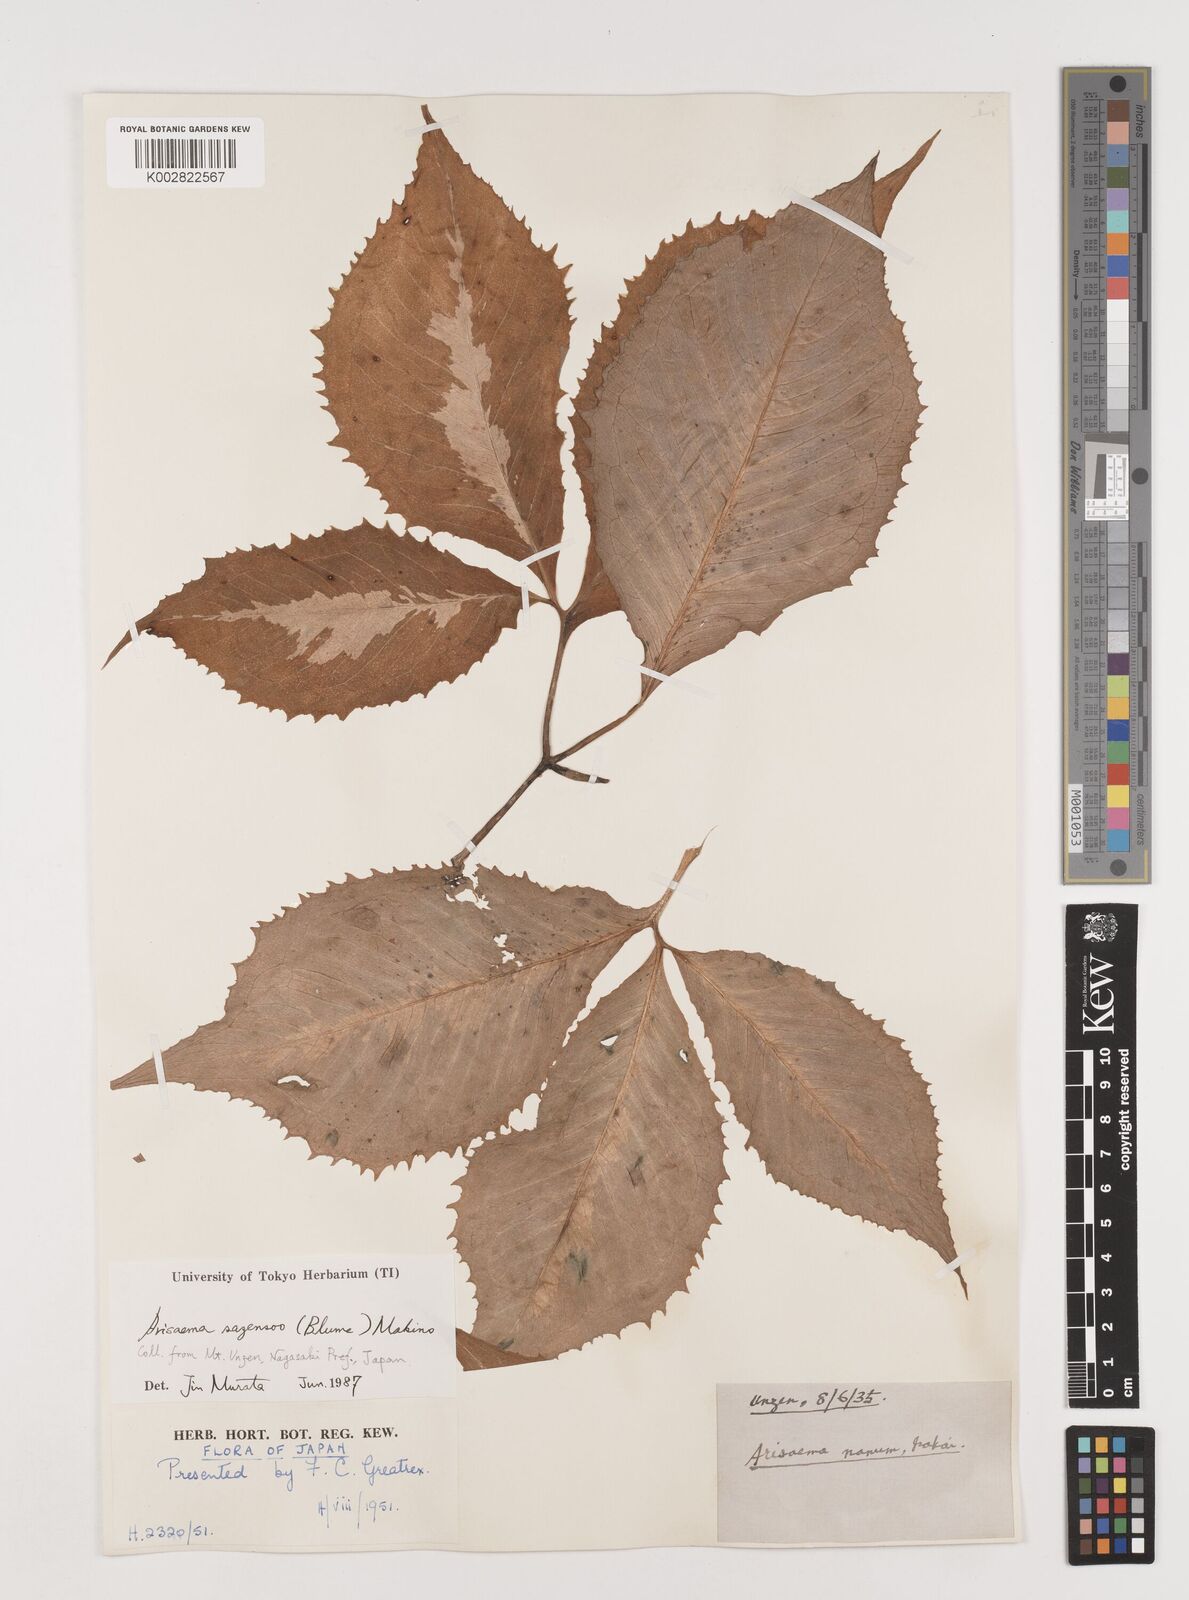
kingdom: Plantae
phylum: Tracheophyta
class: Liliopsida
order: Alismatales
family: Araceae
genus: Arisaema
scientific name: Arisaema sazensoo
